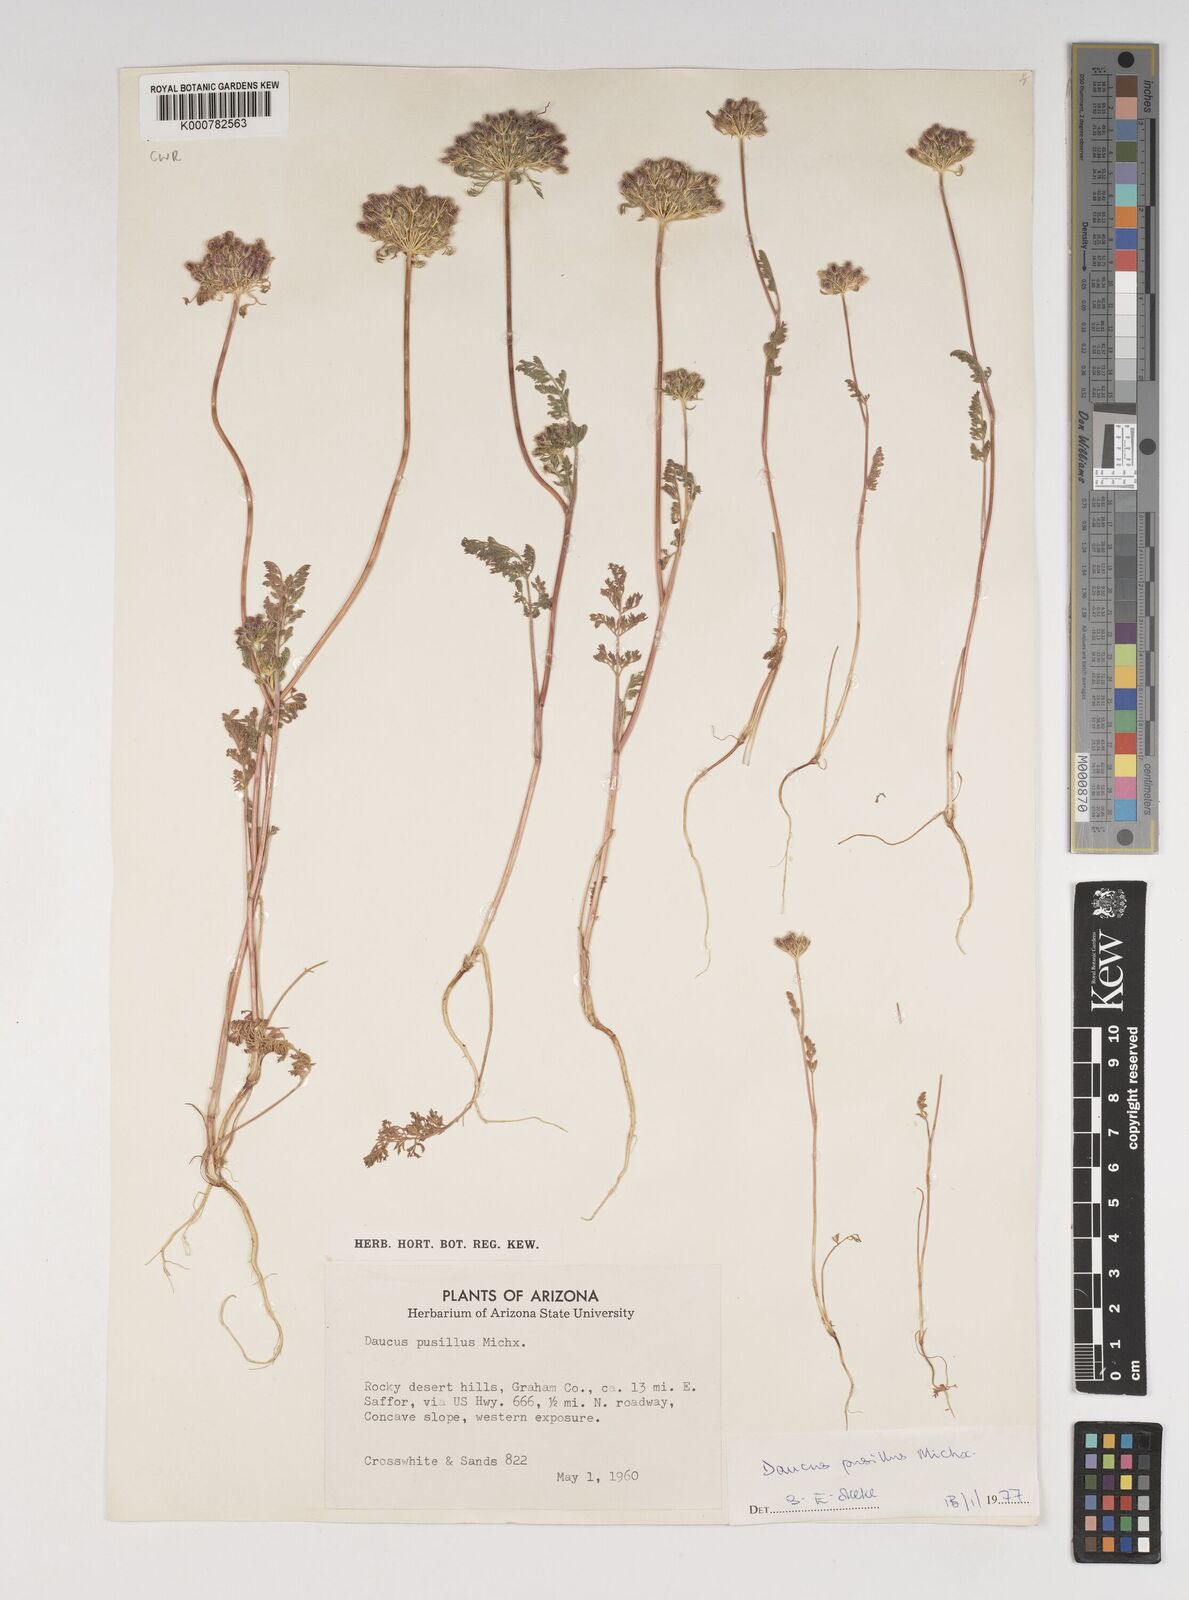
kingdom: Plantae
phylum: Tracheophyta
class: Magnoliopsida
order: Apiales
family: Apiaceae
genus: Daucus
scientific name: Daucus pusillus
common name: Southwest wild carrot
